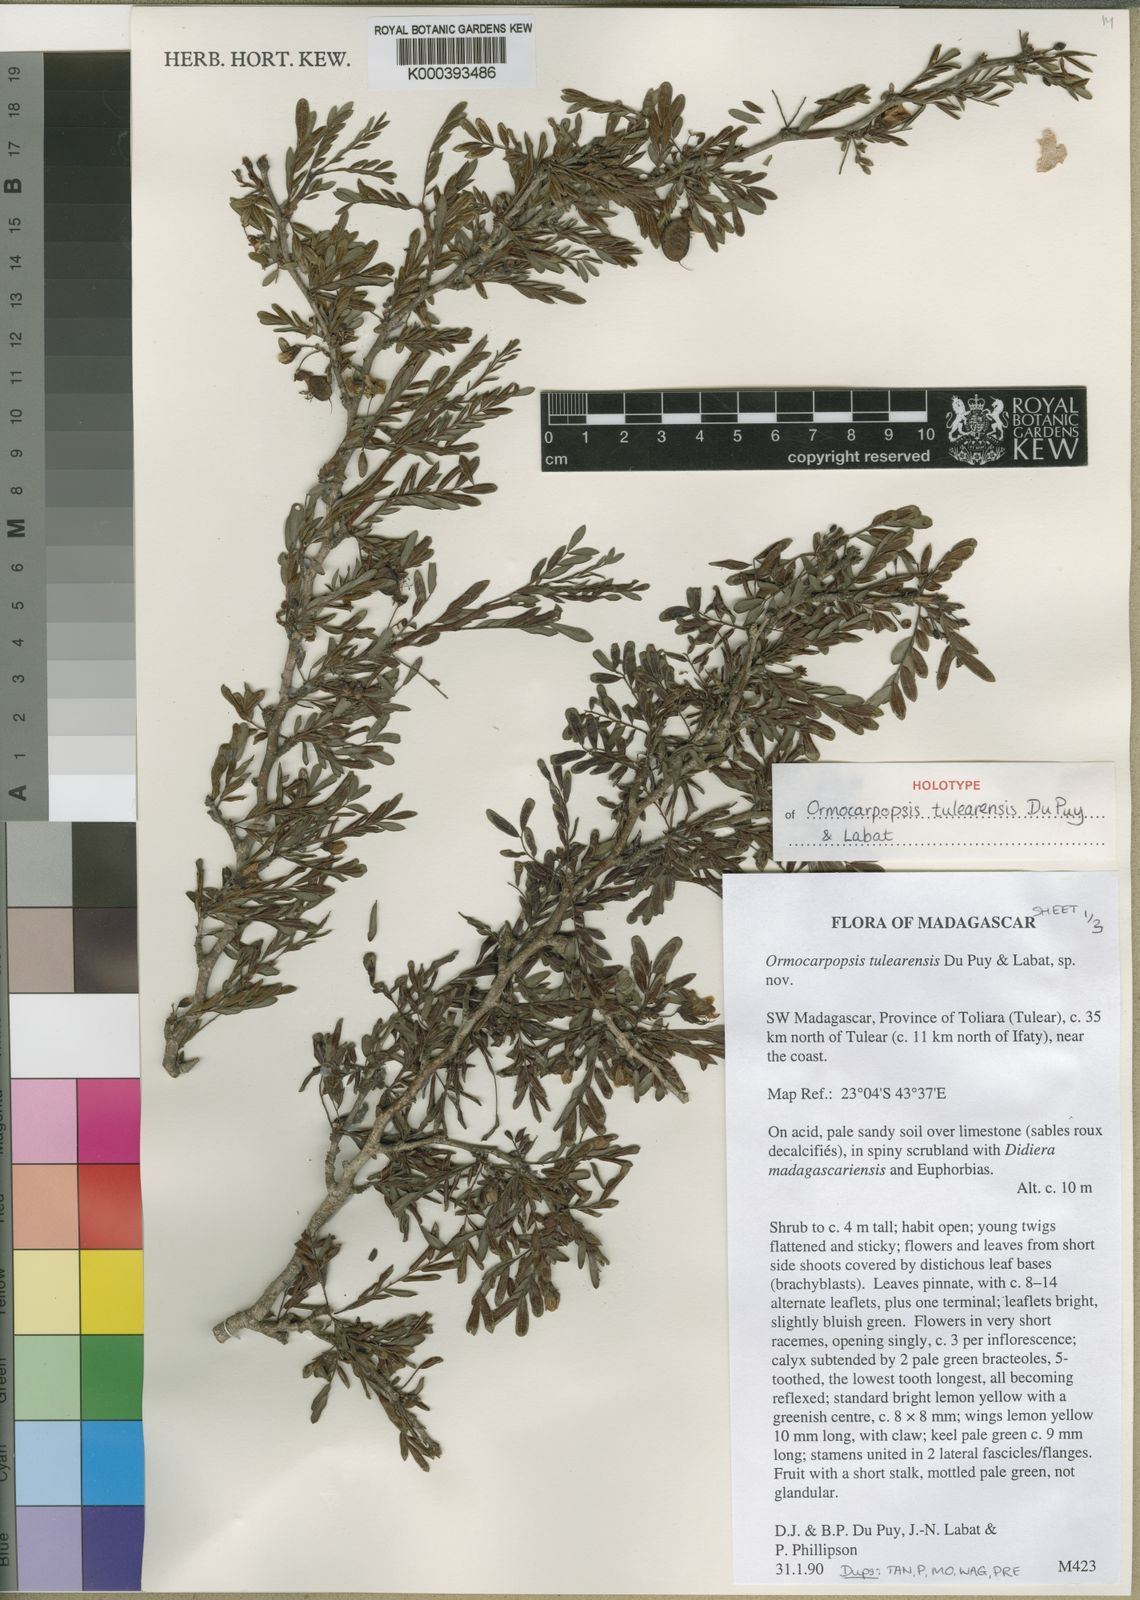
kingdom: Plantae
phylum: Tracheophyta
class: Magnoliopsida
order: Fabales
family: Fabaceae
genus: Ormocarpopsis
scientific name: Ormocarpopsis tulearensis
